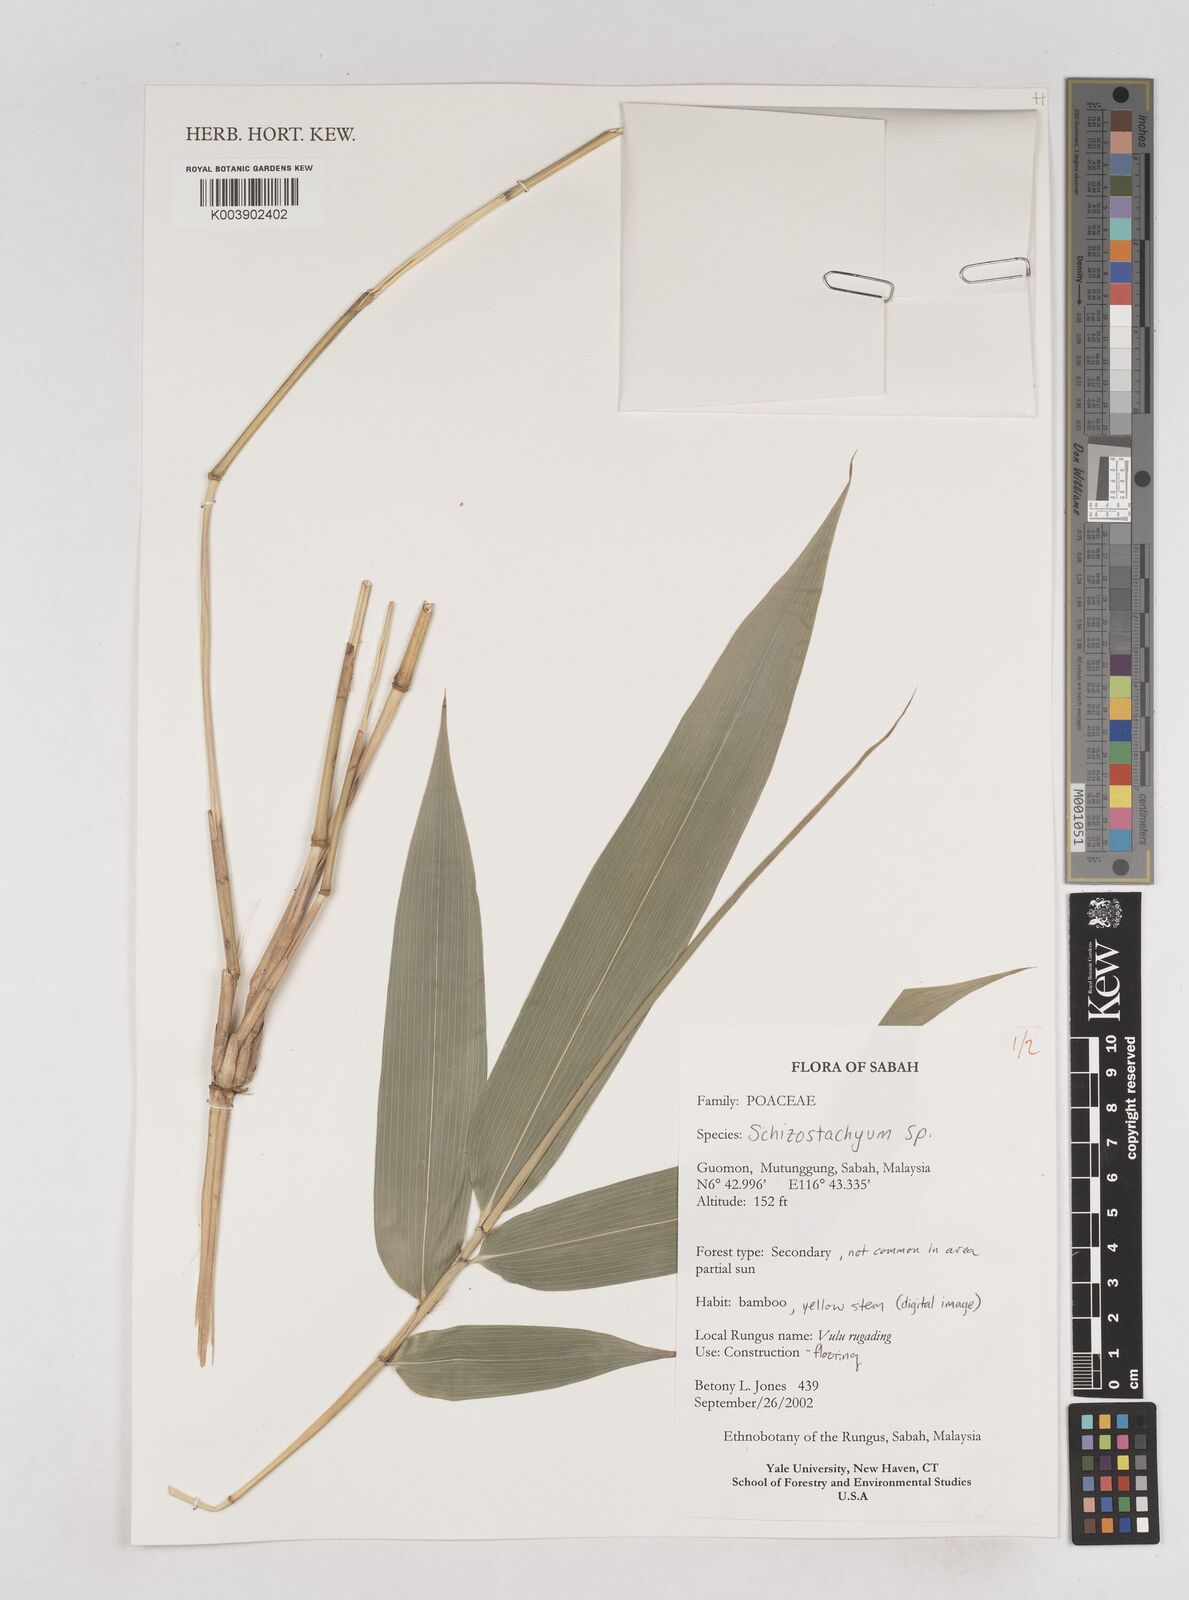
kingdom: Plantae
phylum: Tracheophyta
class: Liliopsida
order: Poales
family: Poaceae
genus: Schizostachyum
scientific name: Schizostachyum
